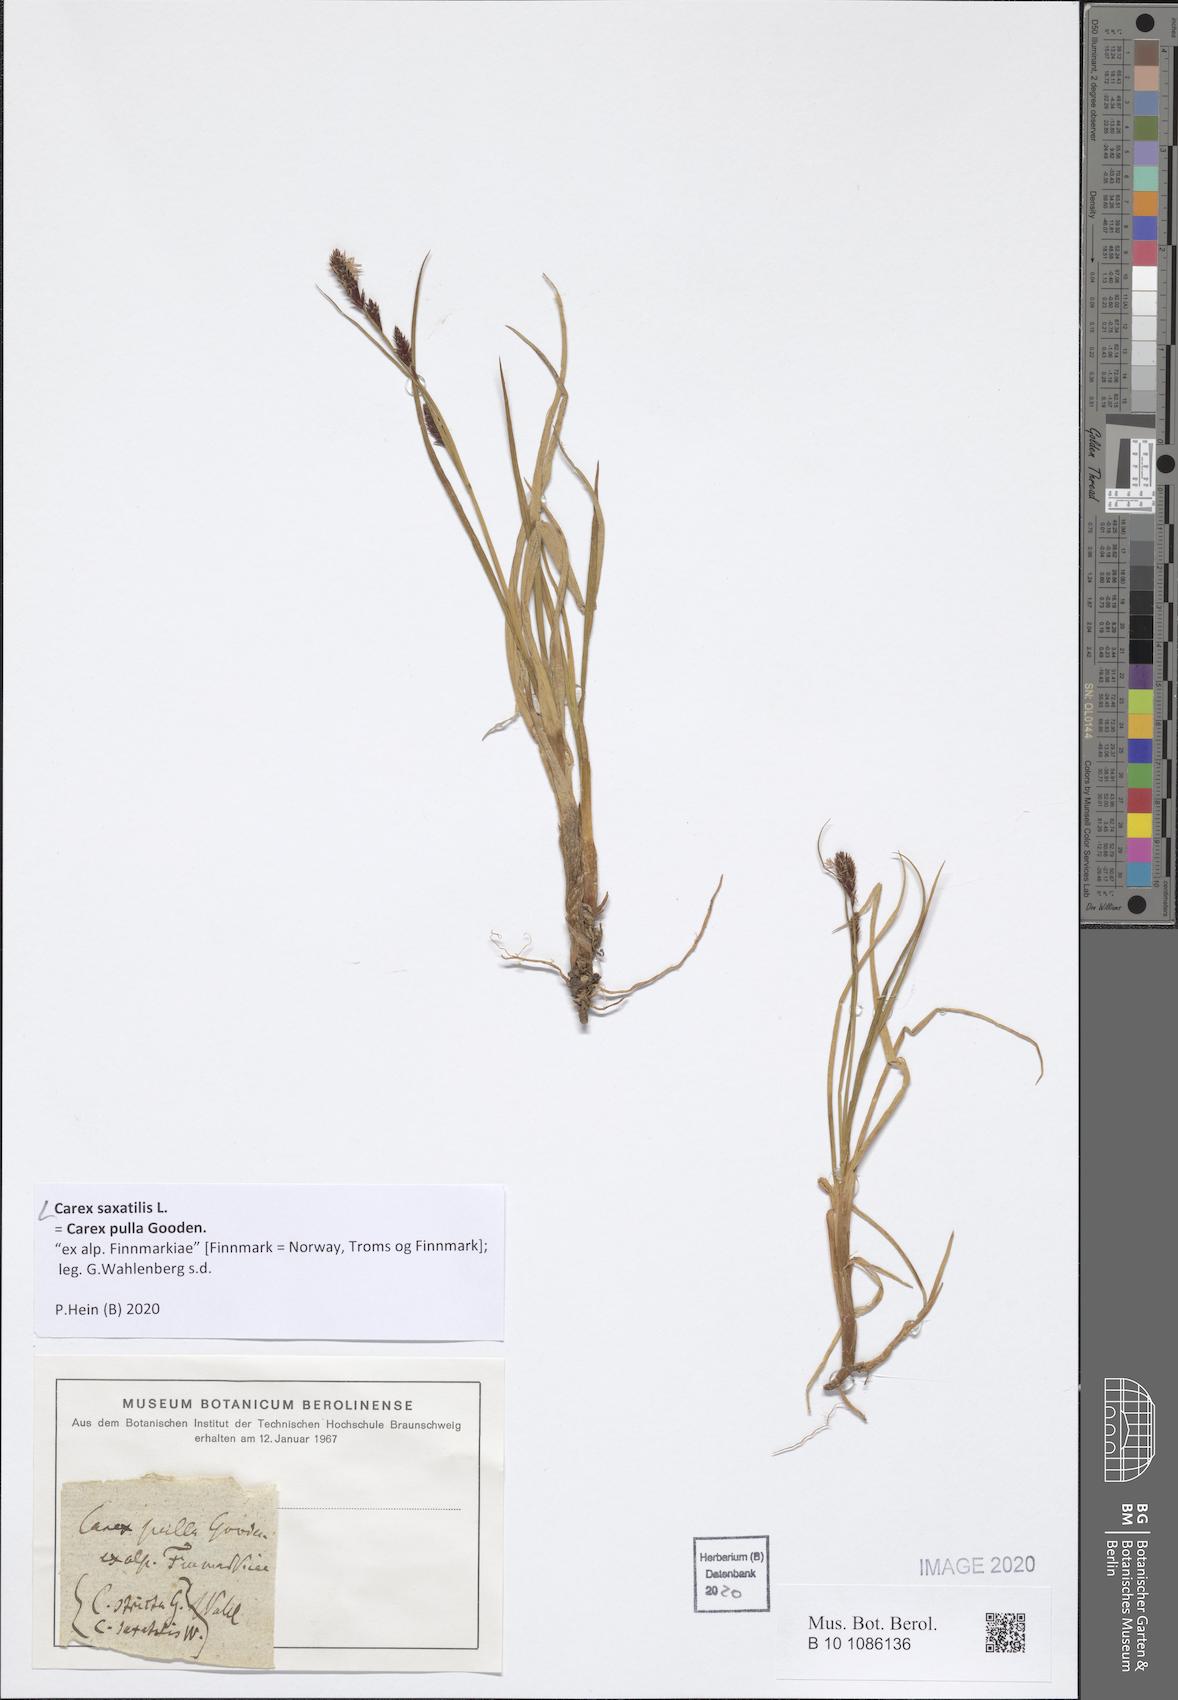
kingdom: Plantae
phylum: Tracheophyta
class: Liliopsida
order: Poales
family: Cyperaceae
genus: Carex
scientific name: Carex saxatilis
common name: Russet sedge
